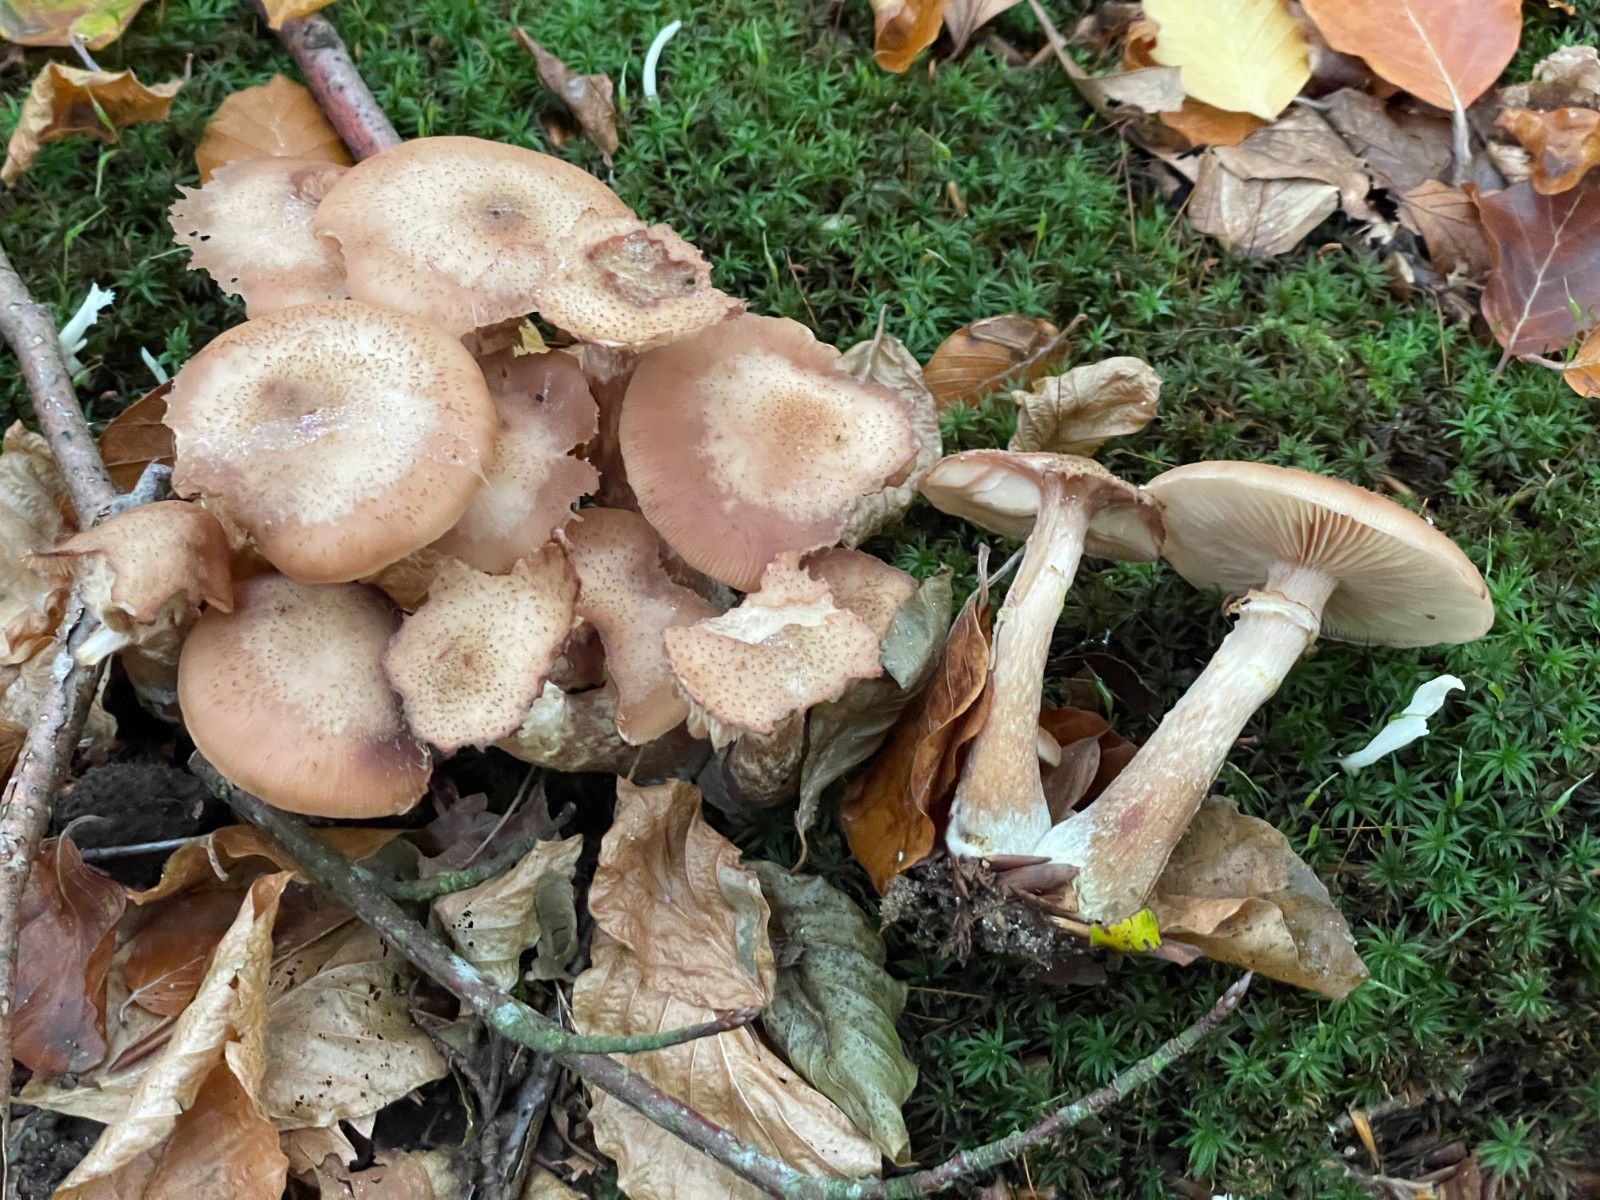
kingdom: Fungi
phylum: Basidiomycota
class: Agaricomycetes
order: Agaricales
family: Physalacriaceae
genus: Armillaria
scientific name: Armillaria lutea
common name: køllestokket honningsvamp
